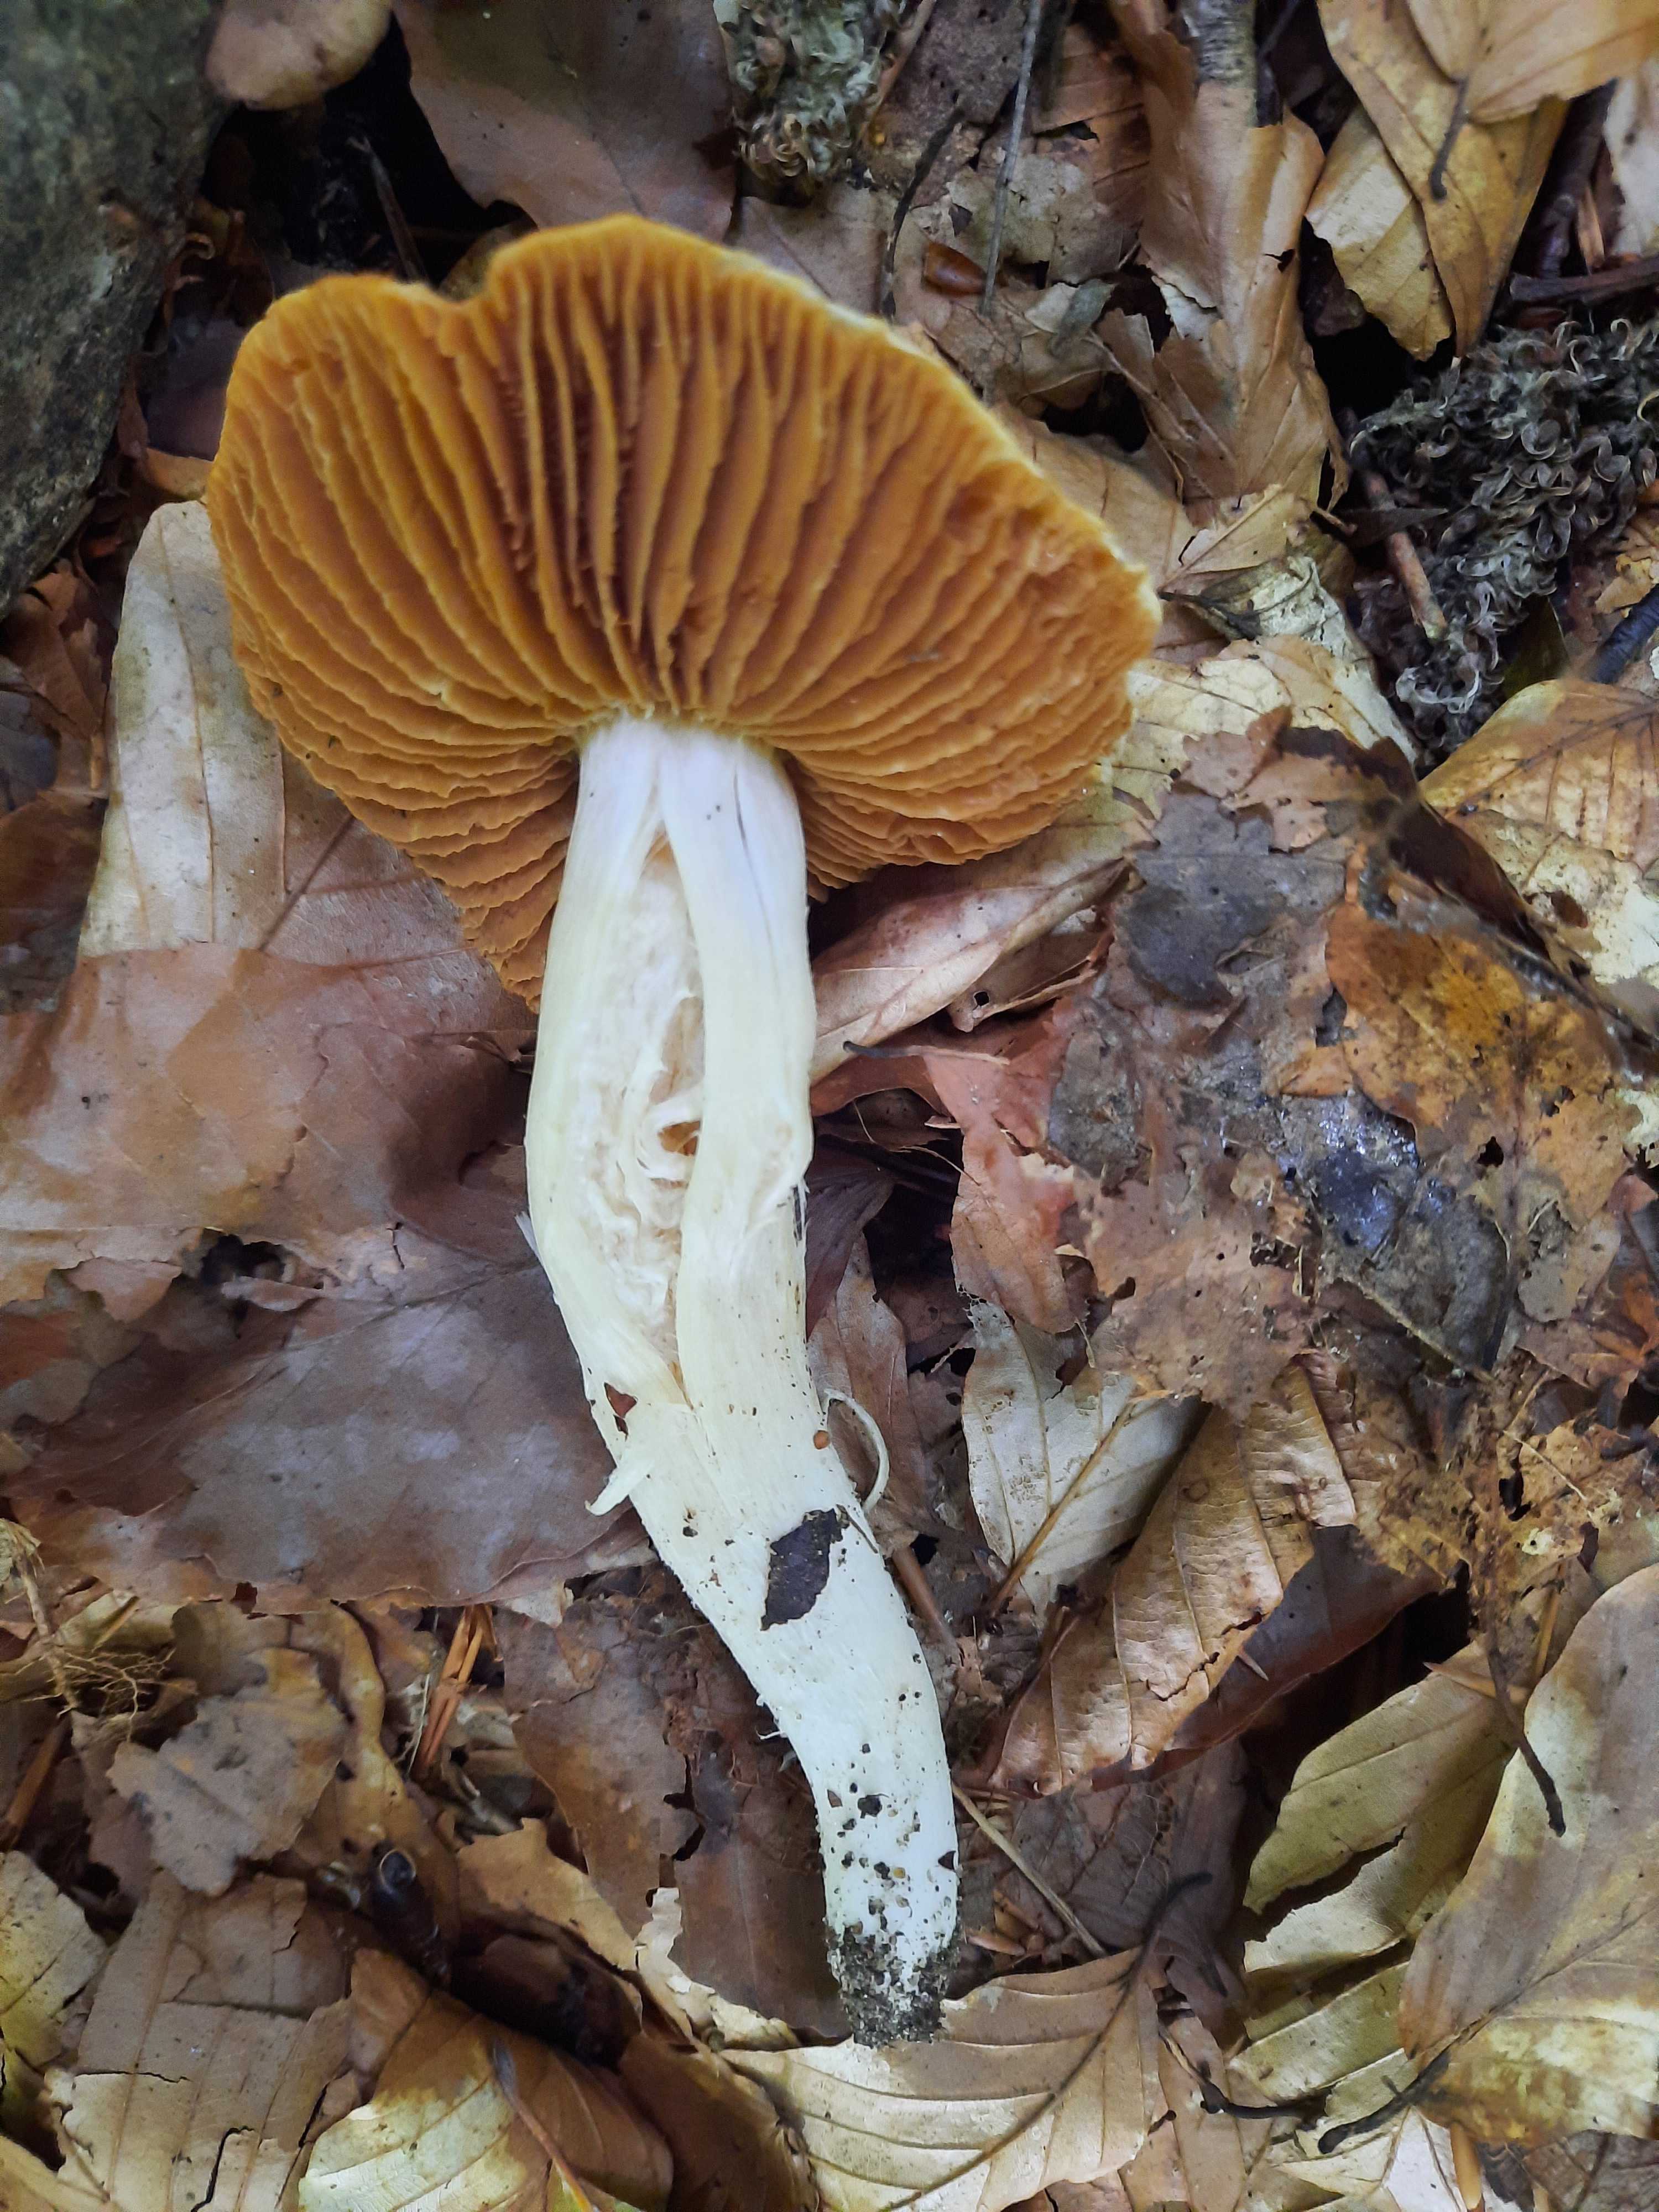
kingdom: Fungi
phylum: Basidiomycota
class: Agaricomycetes
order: Agaricales
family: Cortinariaceae
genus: Cortinarius
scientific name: Cortinarius
